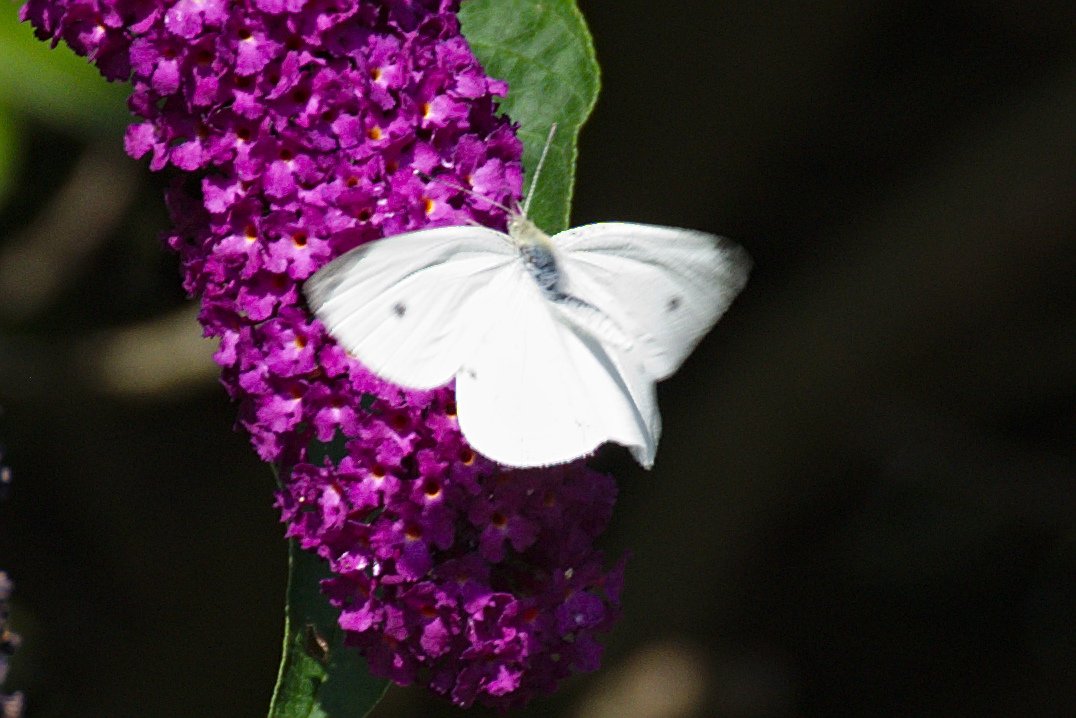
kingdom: Animalia
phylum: Arthropoda
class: Insecta
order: Lepidoptera
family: Pieridae
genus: Pieris
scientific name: Pieris rapae
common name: Cabbage White
